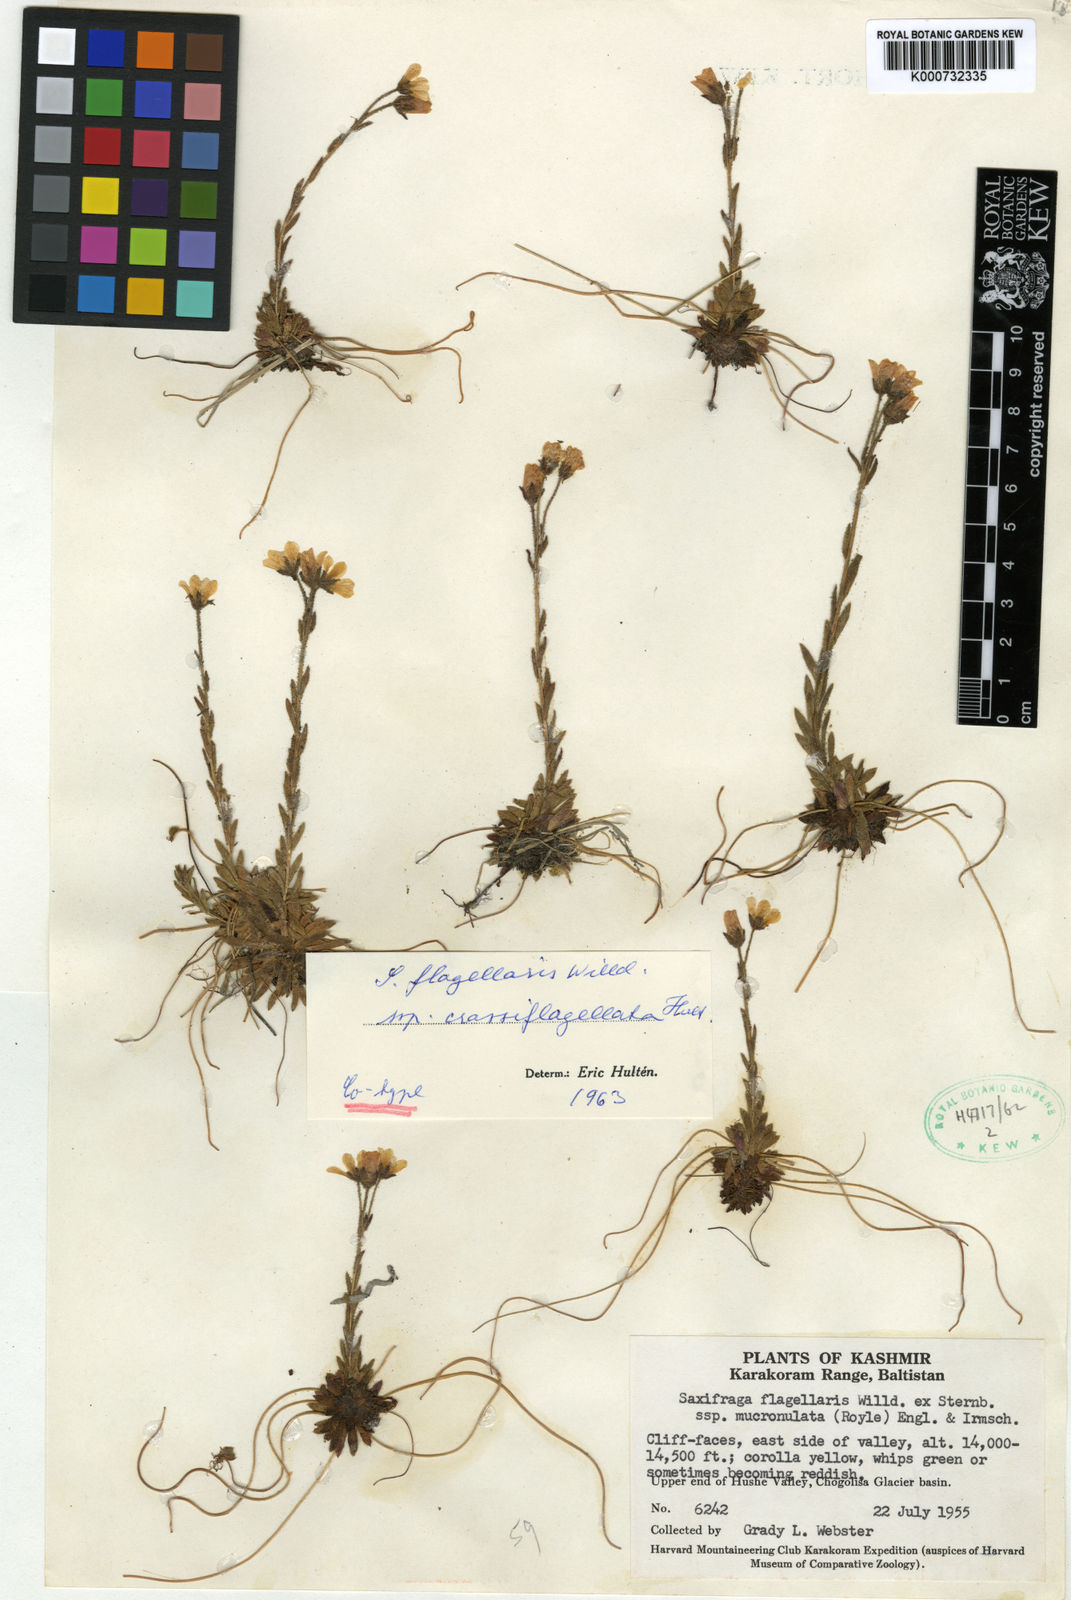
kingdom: Plantae
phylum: Tracheophyta
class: Magnoliopsida
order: Saxifragales
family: Saxifragaceae
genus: Saxifraga
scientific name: Saxifraga flagellaris
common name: Spider saxifrage
